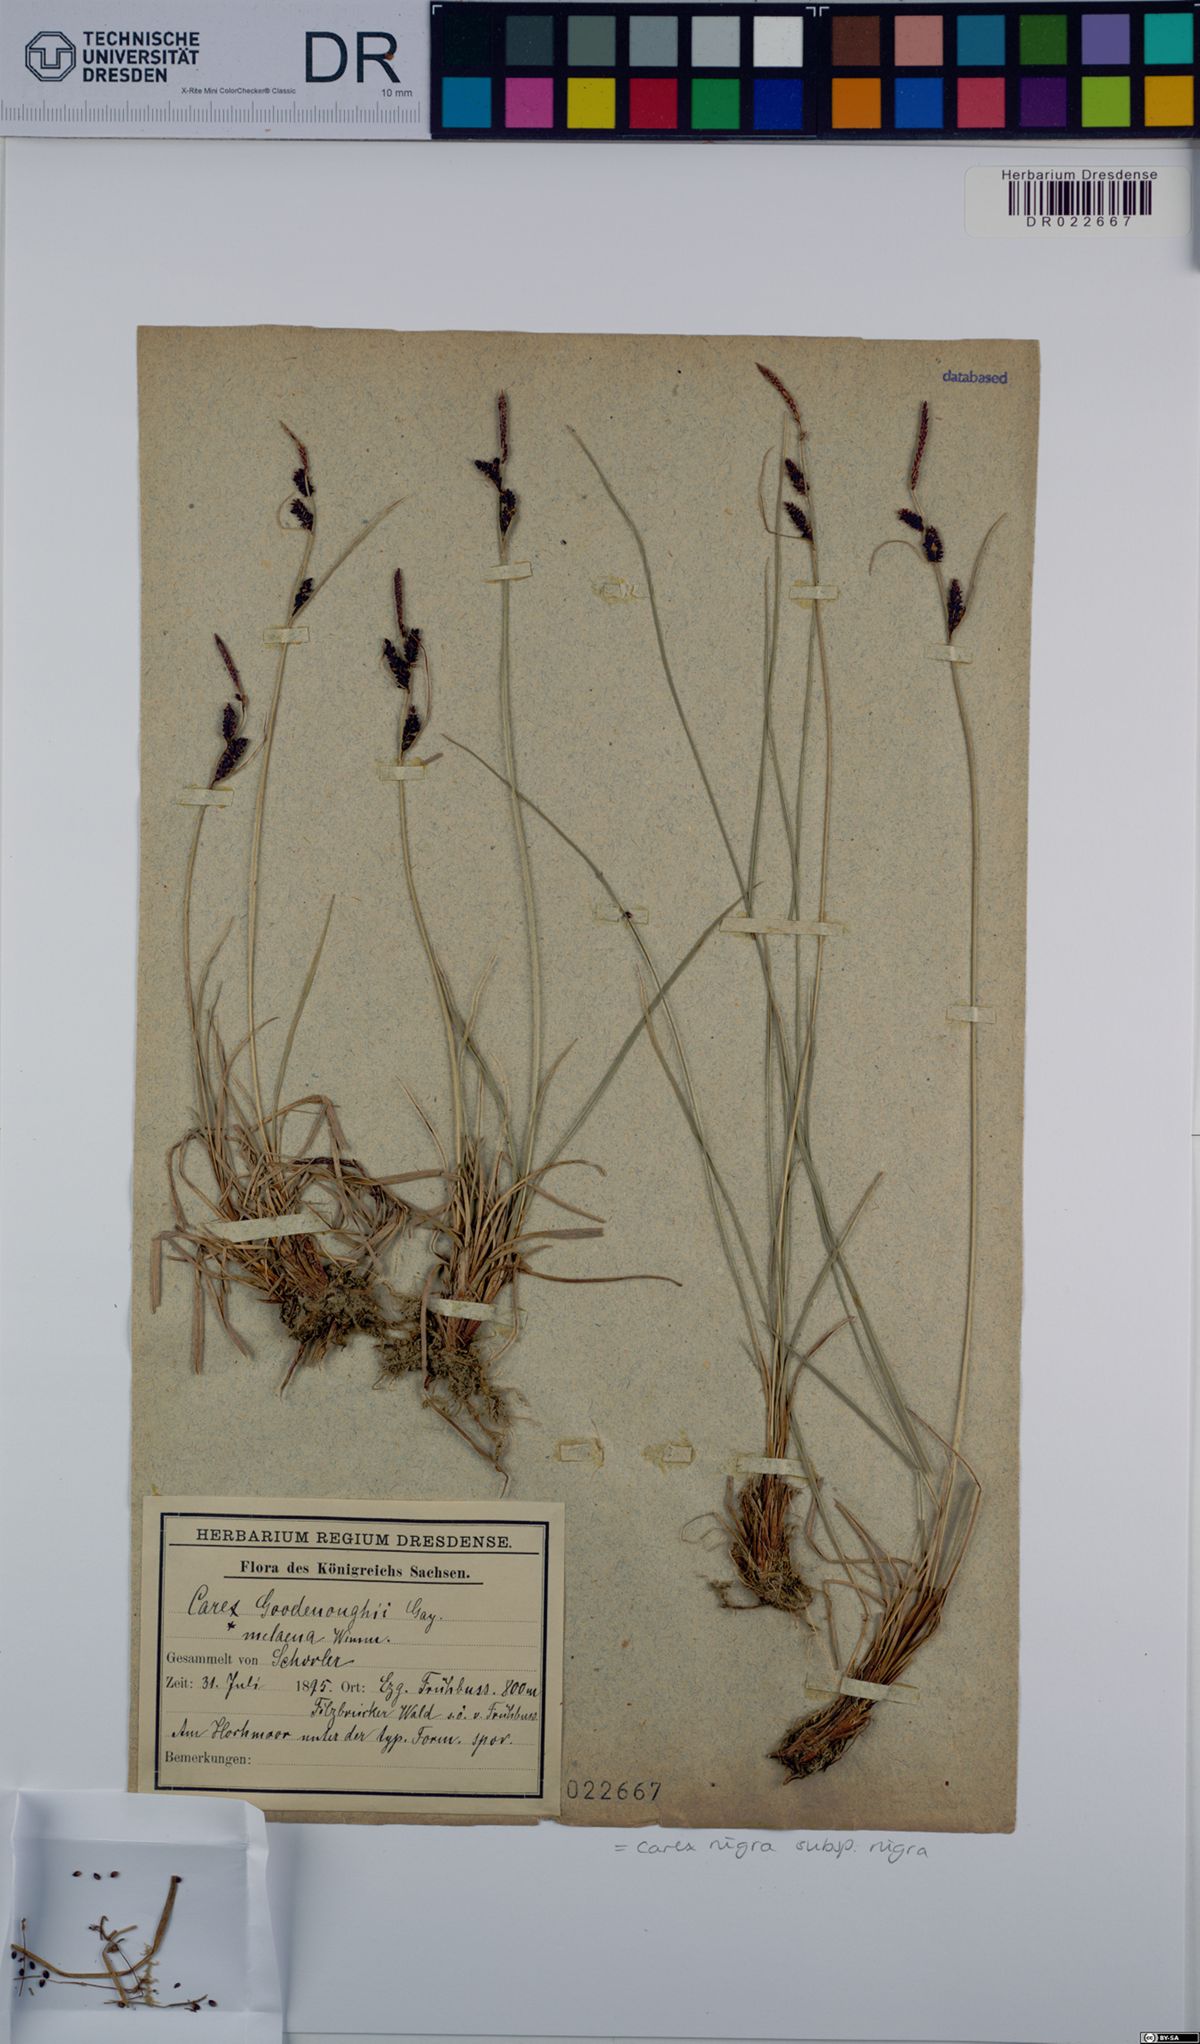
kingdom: Plantae
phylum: Tracheophyta
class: Liliopsida
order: Poales
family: Cyperaceae
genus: Carex
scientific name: Carex nigra
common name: Common sedge
